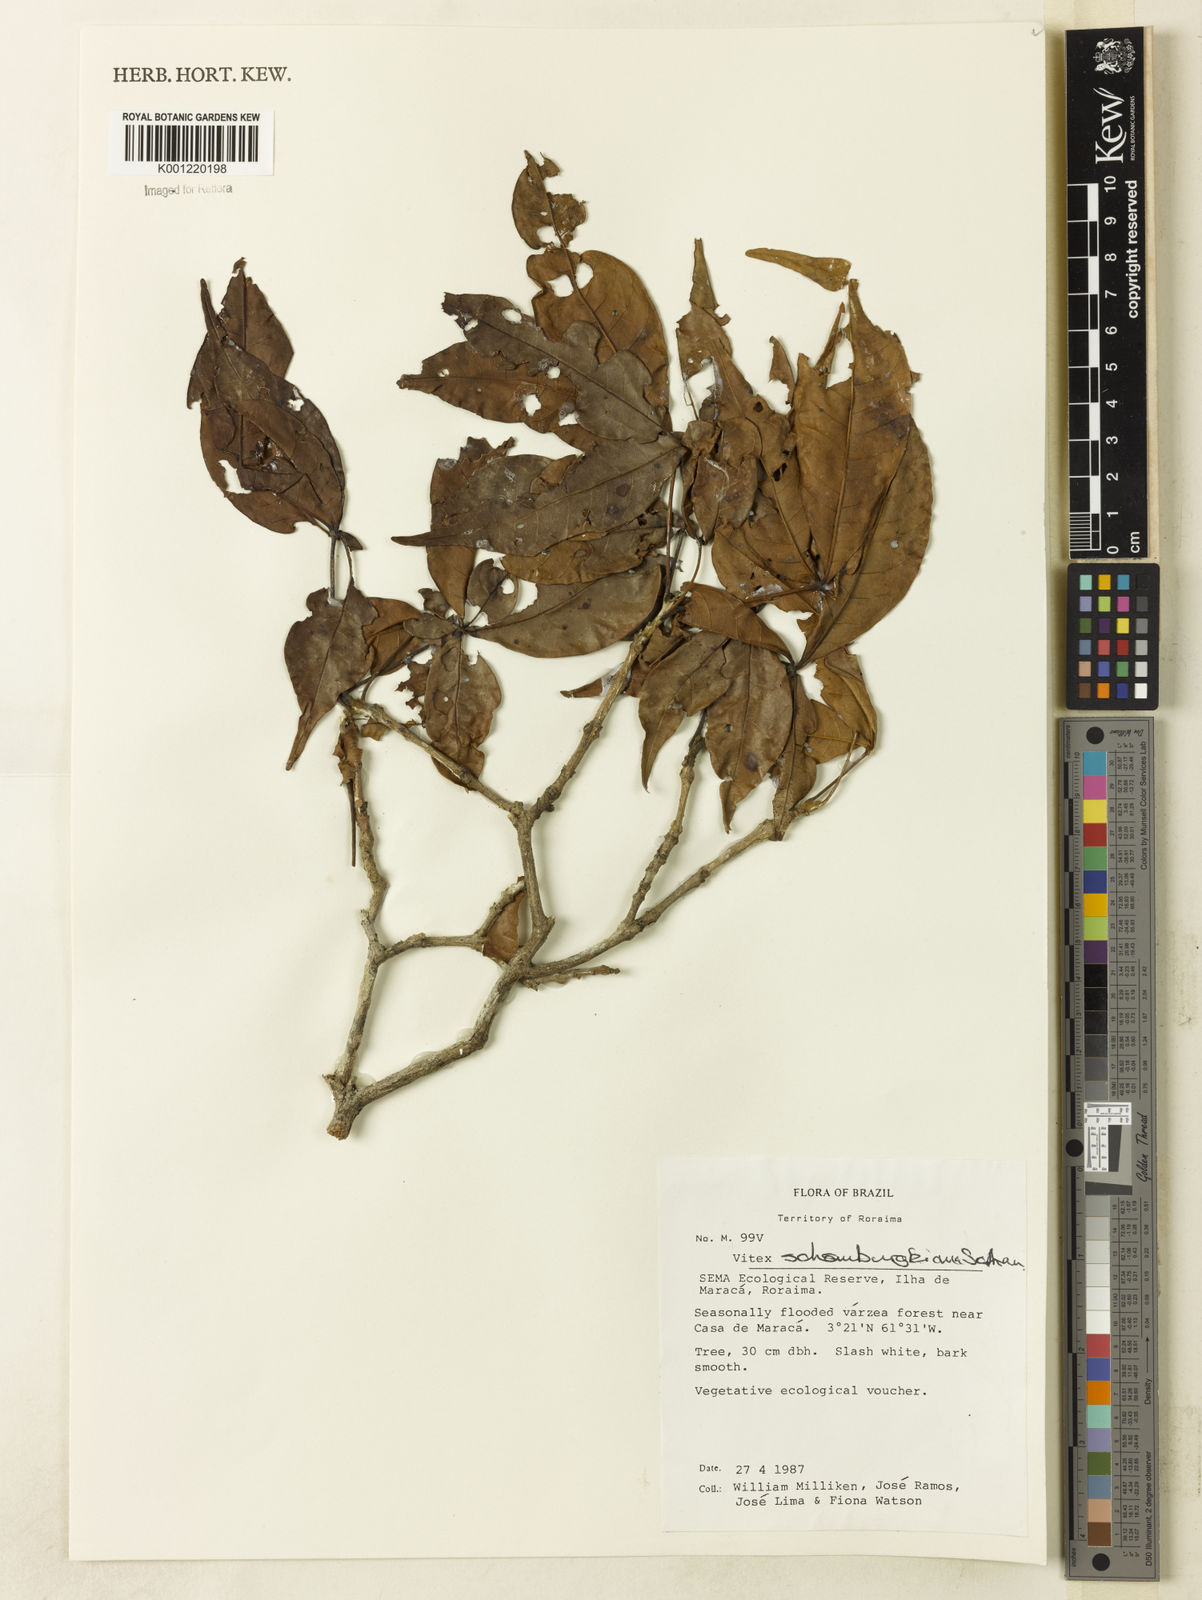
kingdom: Plantae
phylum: Tracheophyta
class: Magnoliopsida
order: Lamiales
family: Lamiaceae
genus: Vitex
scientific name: Vitex schomburgkiana
